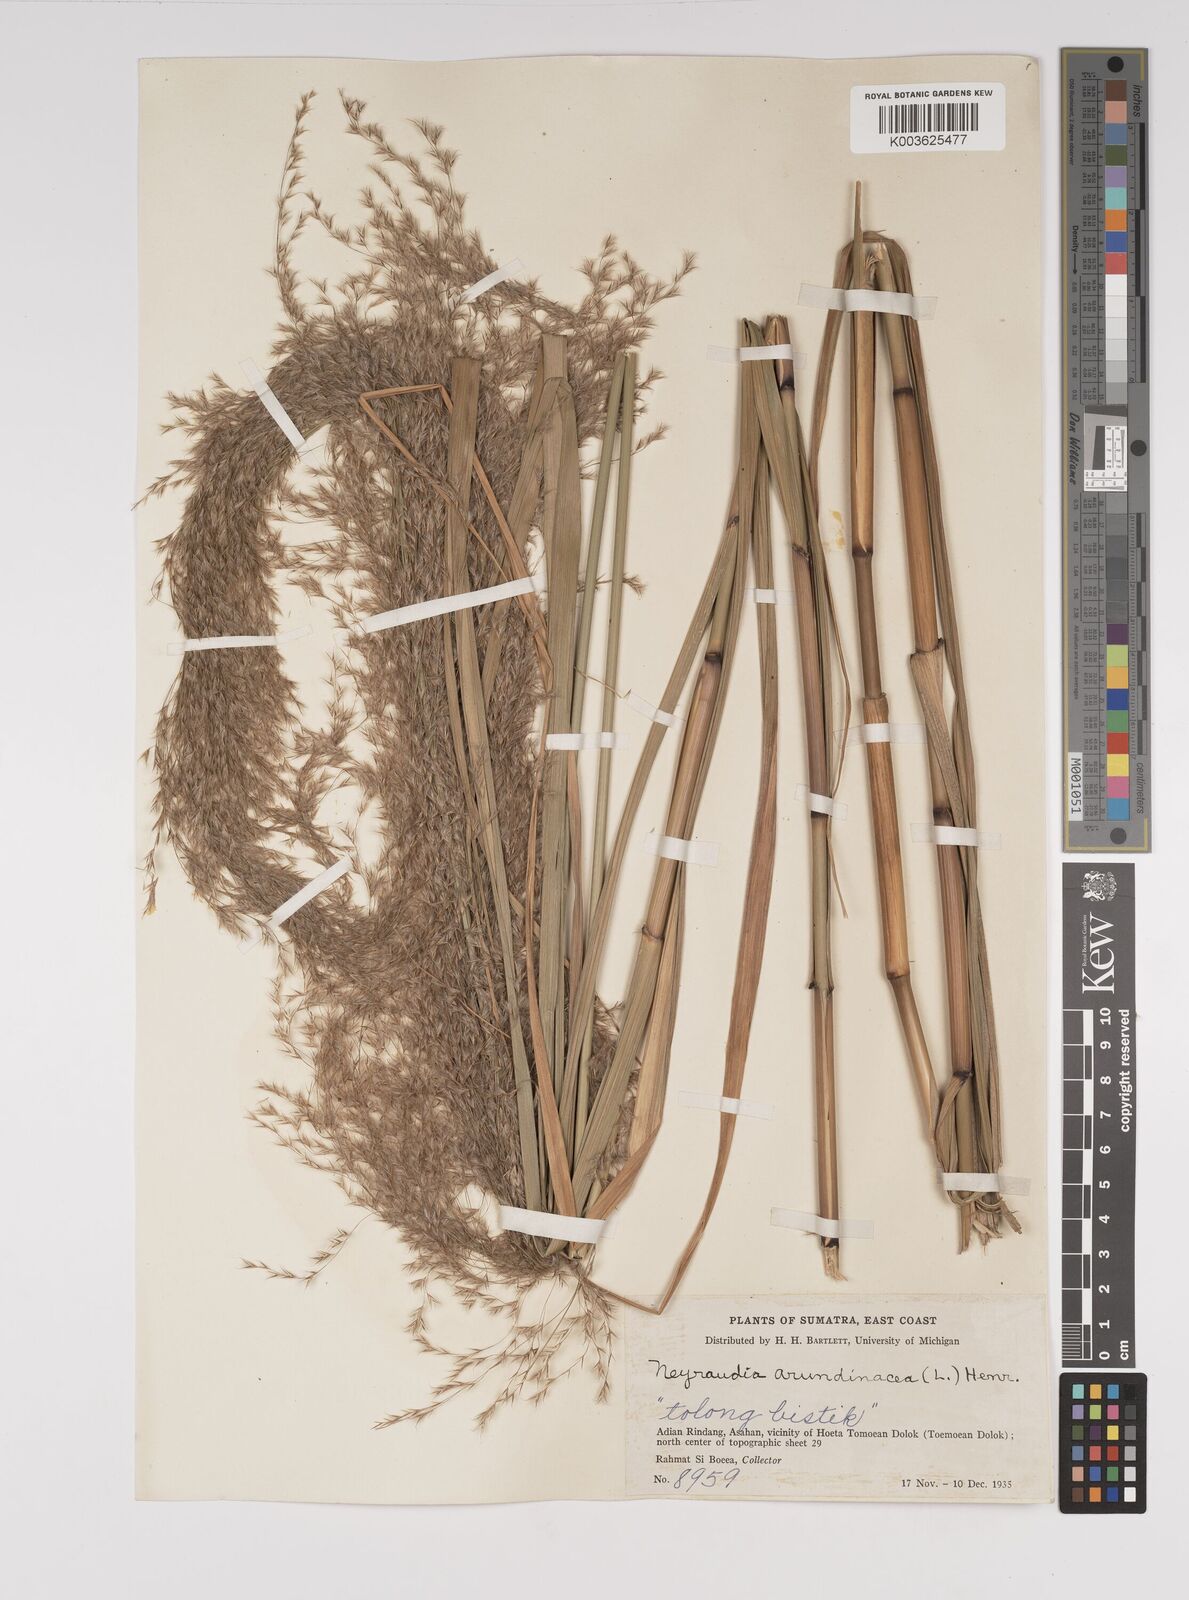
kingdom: Plantae
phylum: Tracheophyta
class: Liliopsida
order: Poales
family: Poaceae
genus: Neyraudia
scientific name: Neyraudia reynaudiana
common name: Silkreed
